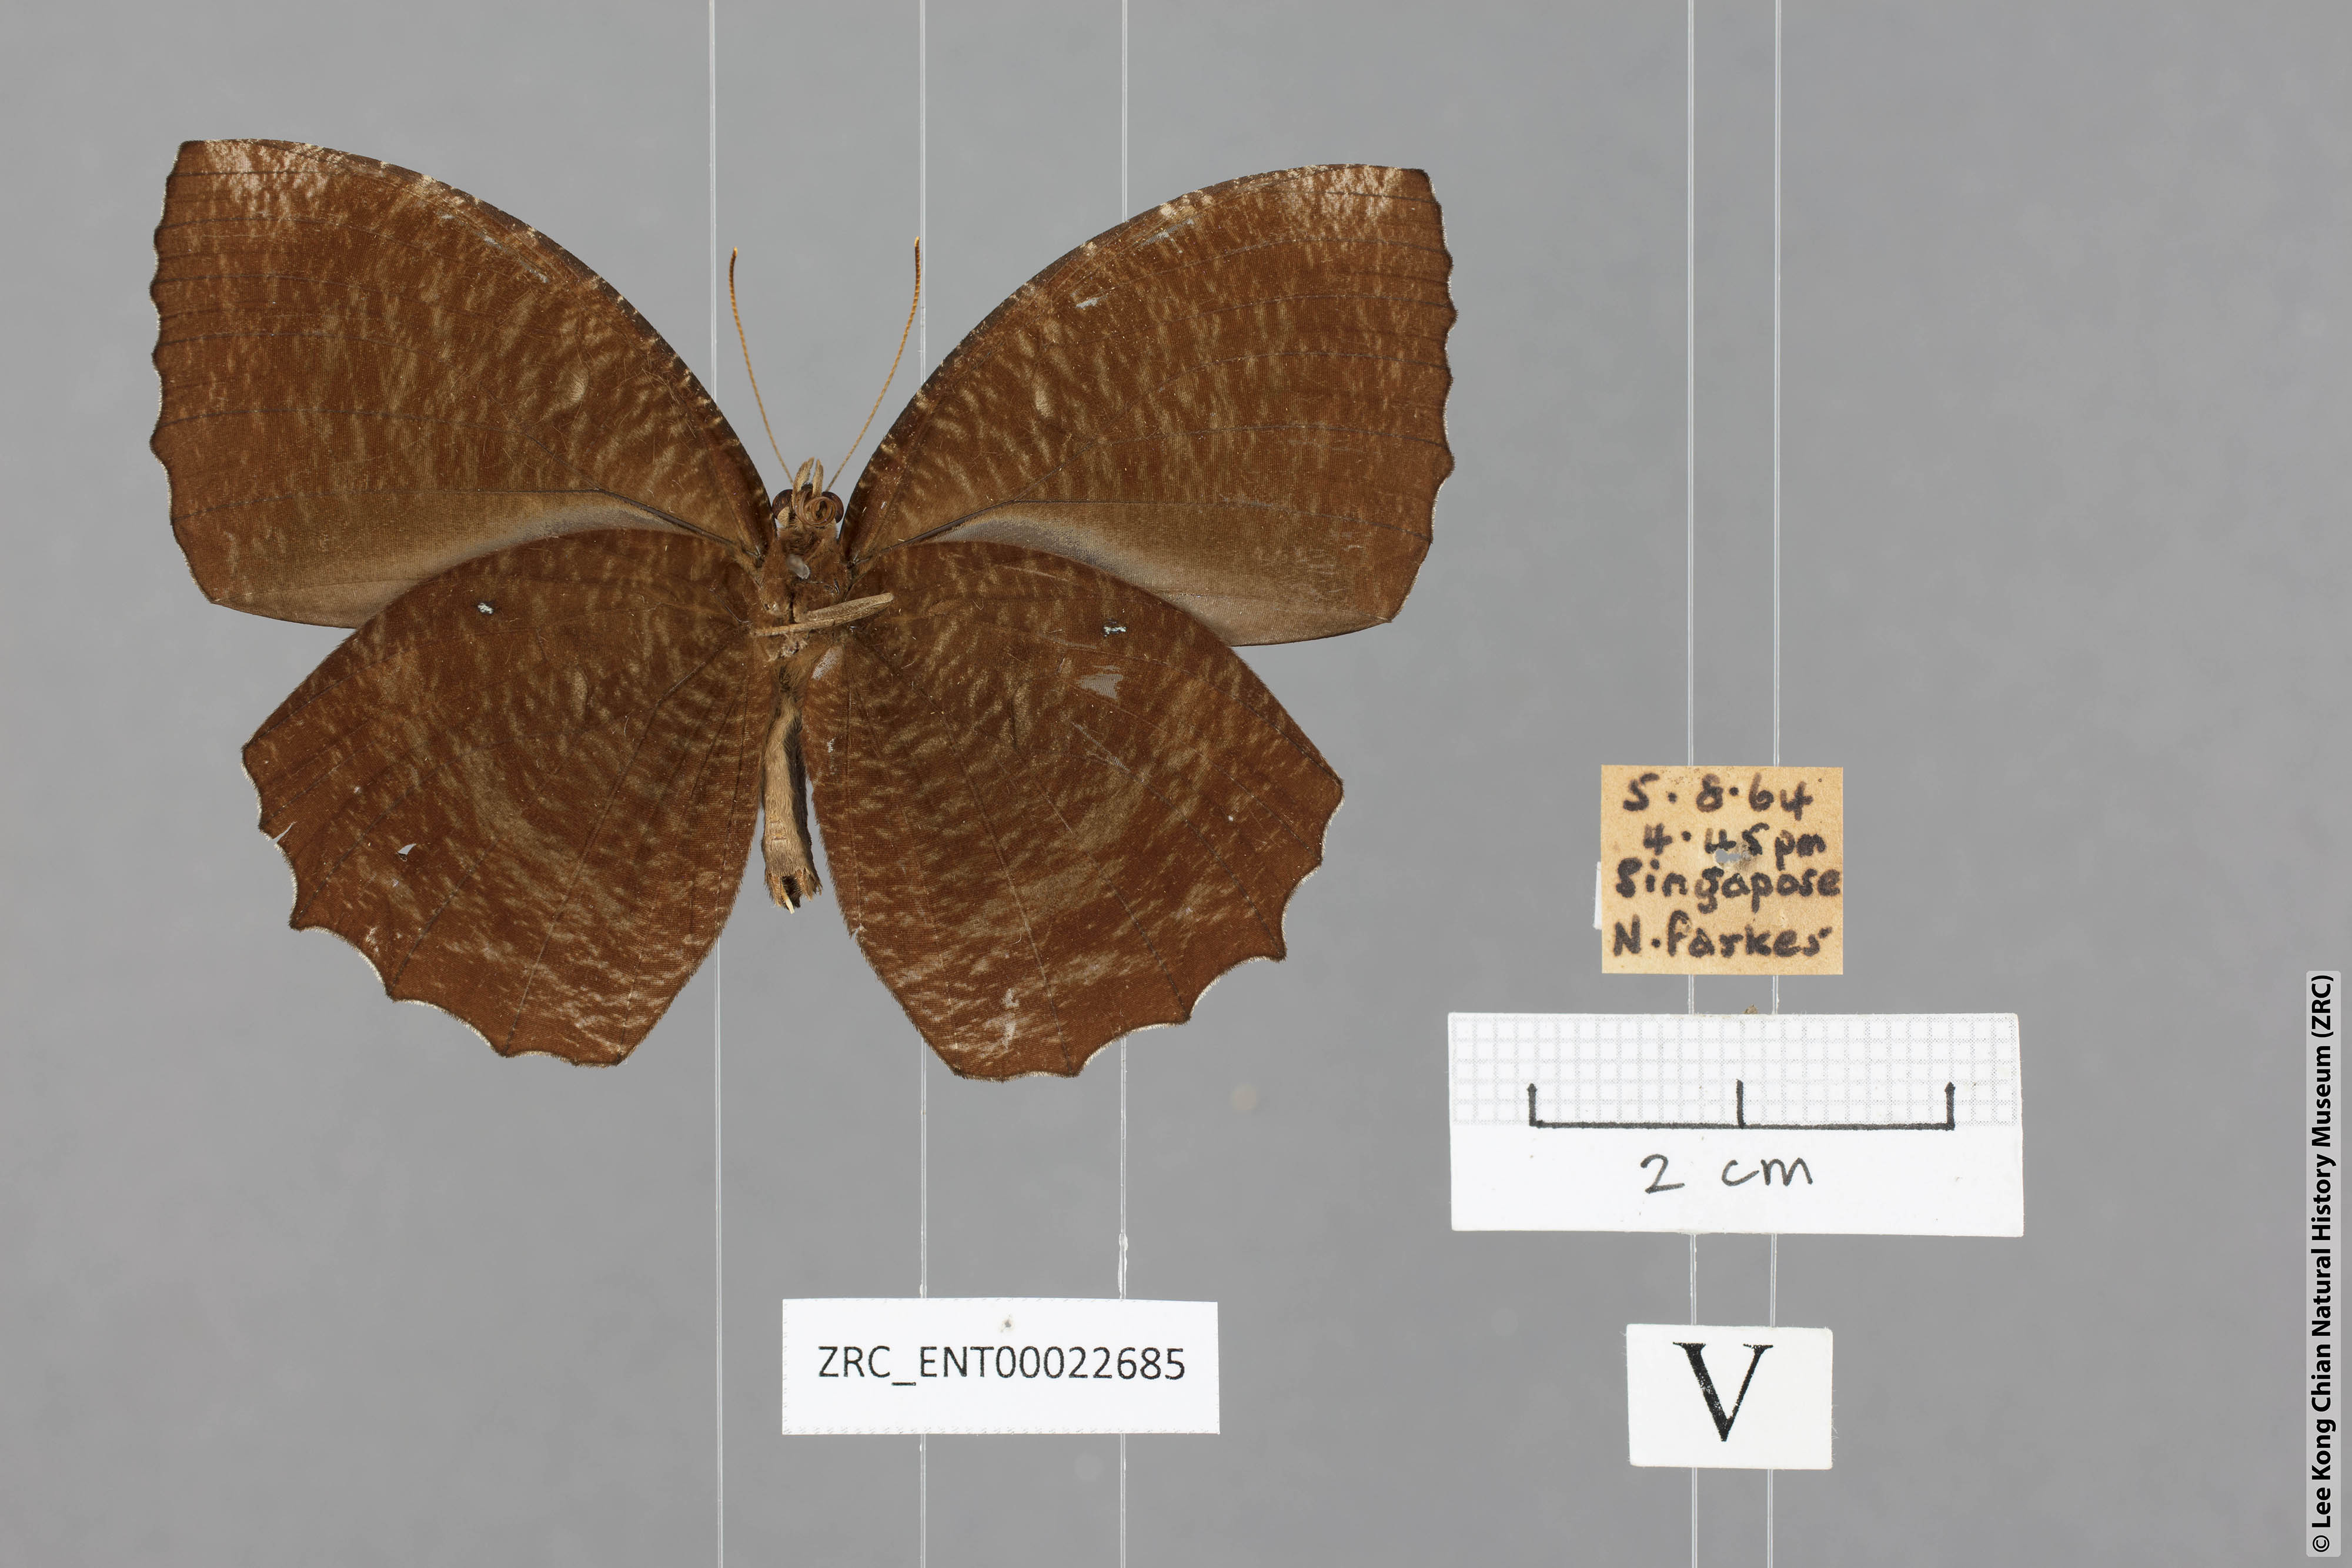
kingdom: Animalia
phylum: Arthropoda
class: Insecta
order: Lepidoptera
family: Nymphalidae
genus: Elymnias
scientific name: Elymnias hypermnestra
